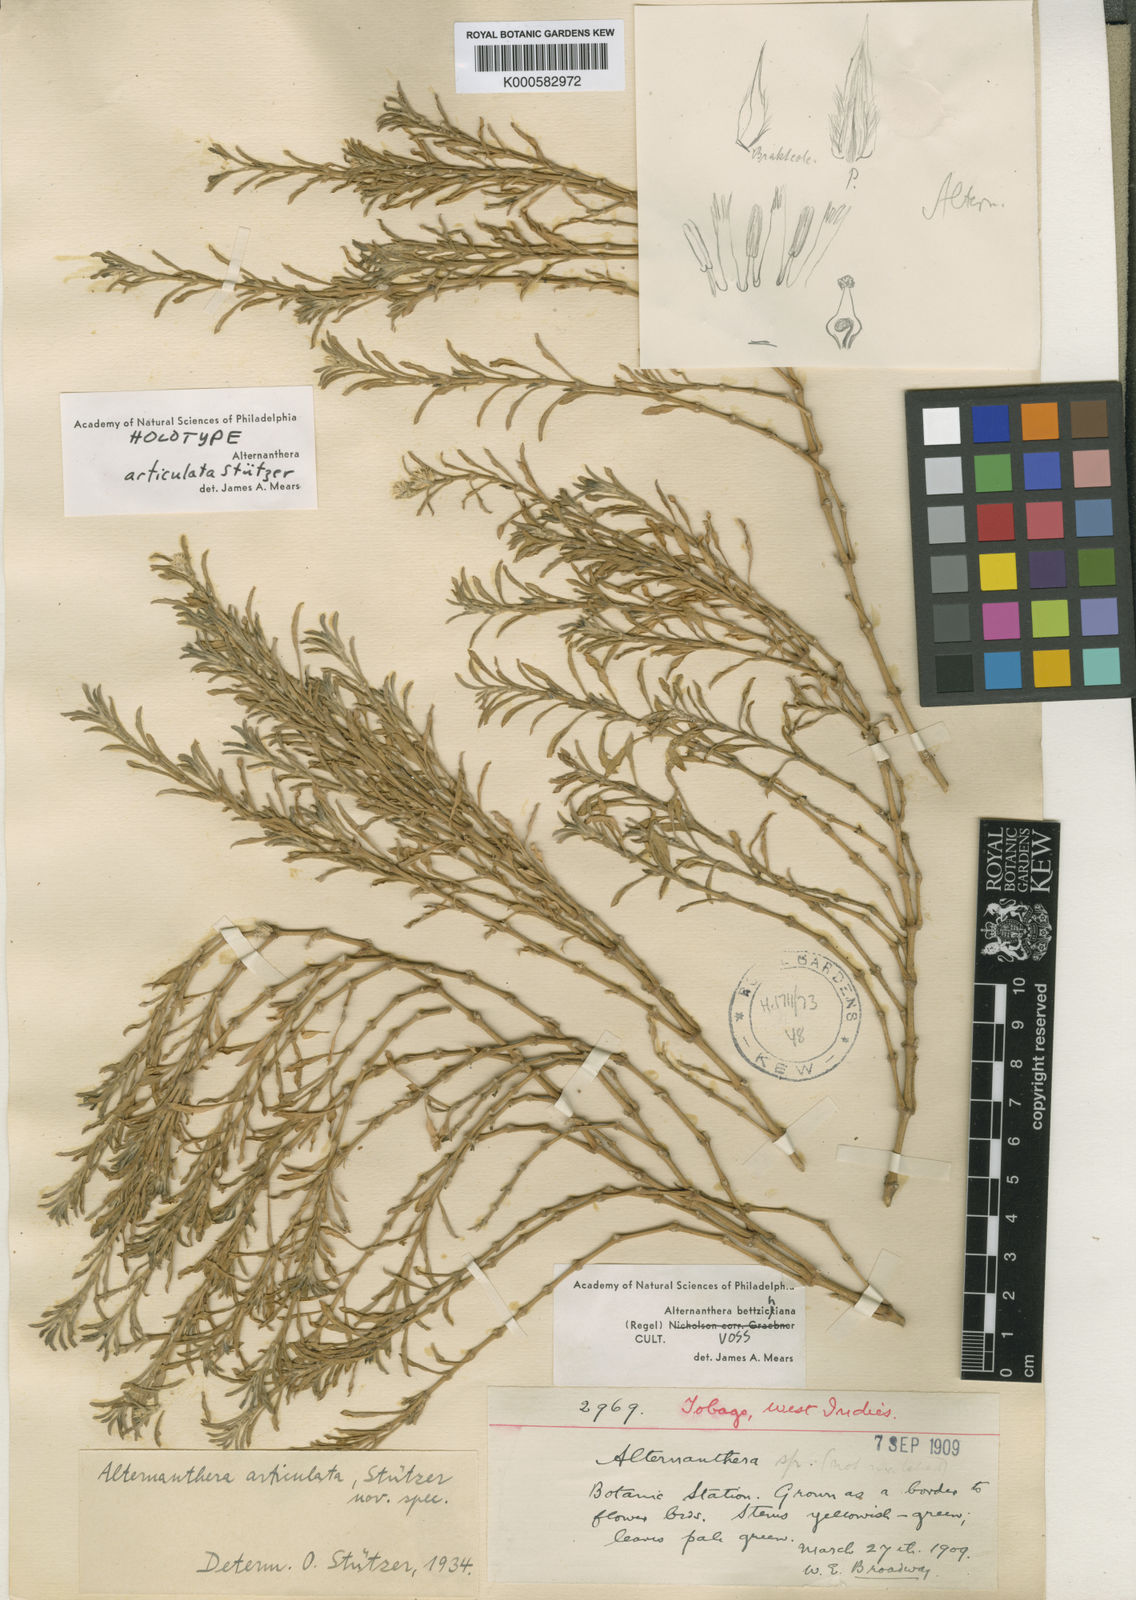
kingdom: Plantae
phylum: Tracheophyta
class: Magnoliopsida
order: Caryophyllales
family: Amaranthaceae
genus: Alternanthera
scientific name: Alternanthera
